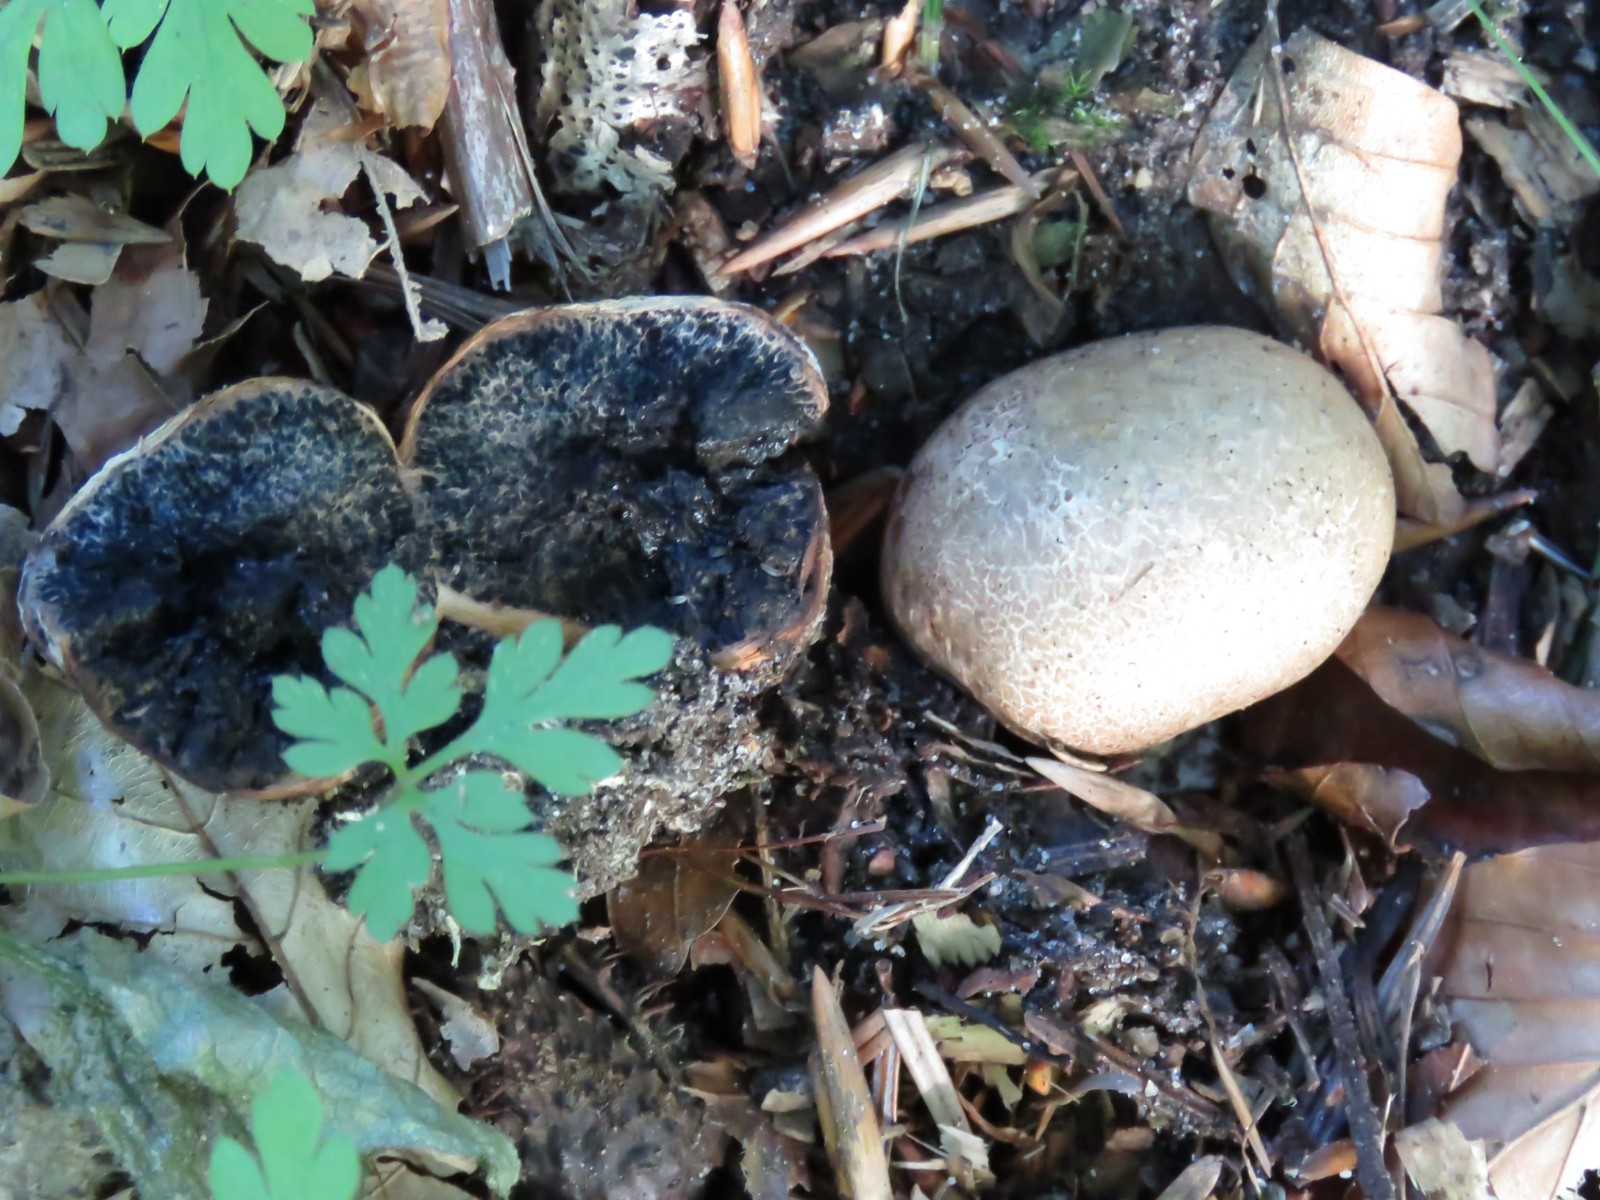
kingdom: Fungi
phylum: Basidiomycota
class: Agaricomycetes
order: Boletales
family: Sclerodermataceae
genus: Scleroderma
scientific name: Scleroderma
